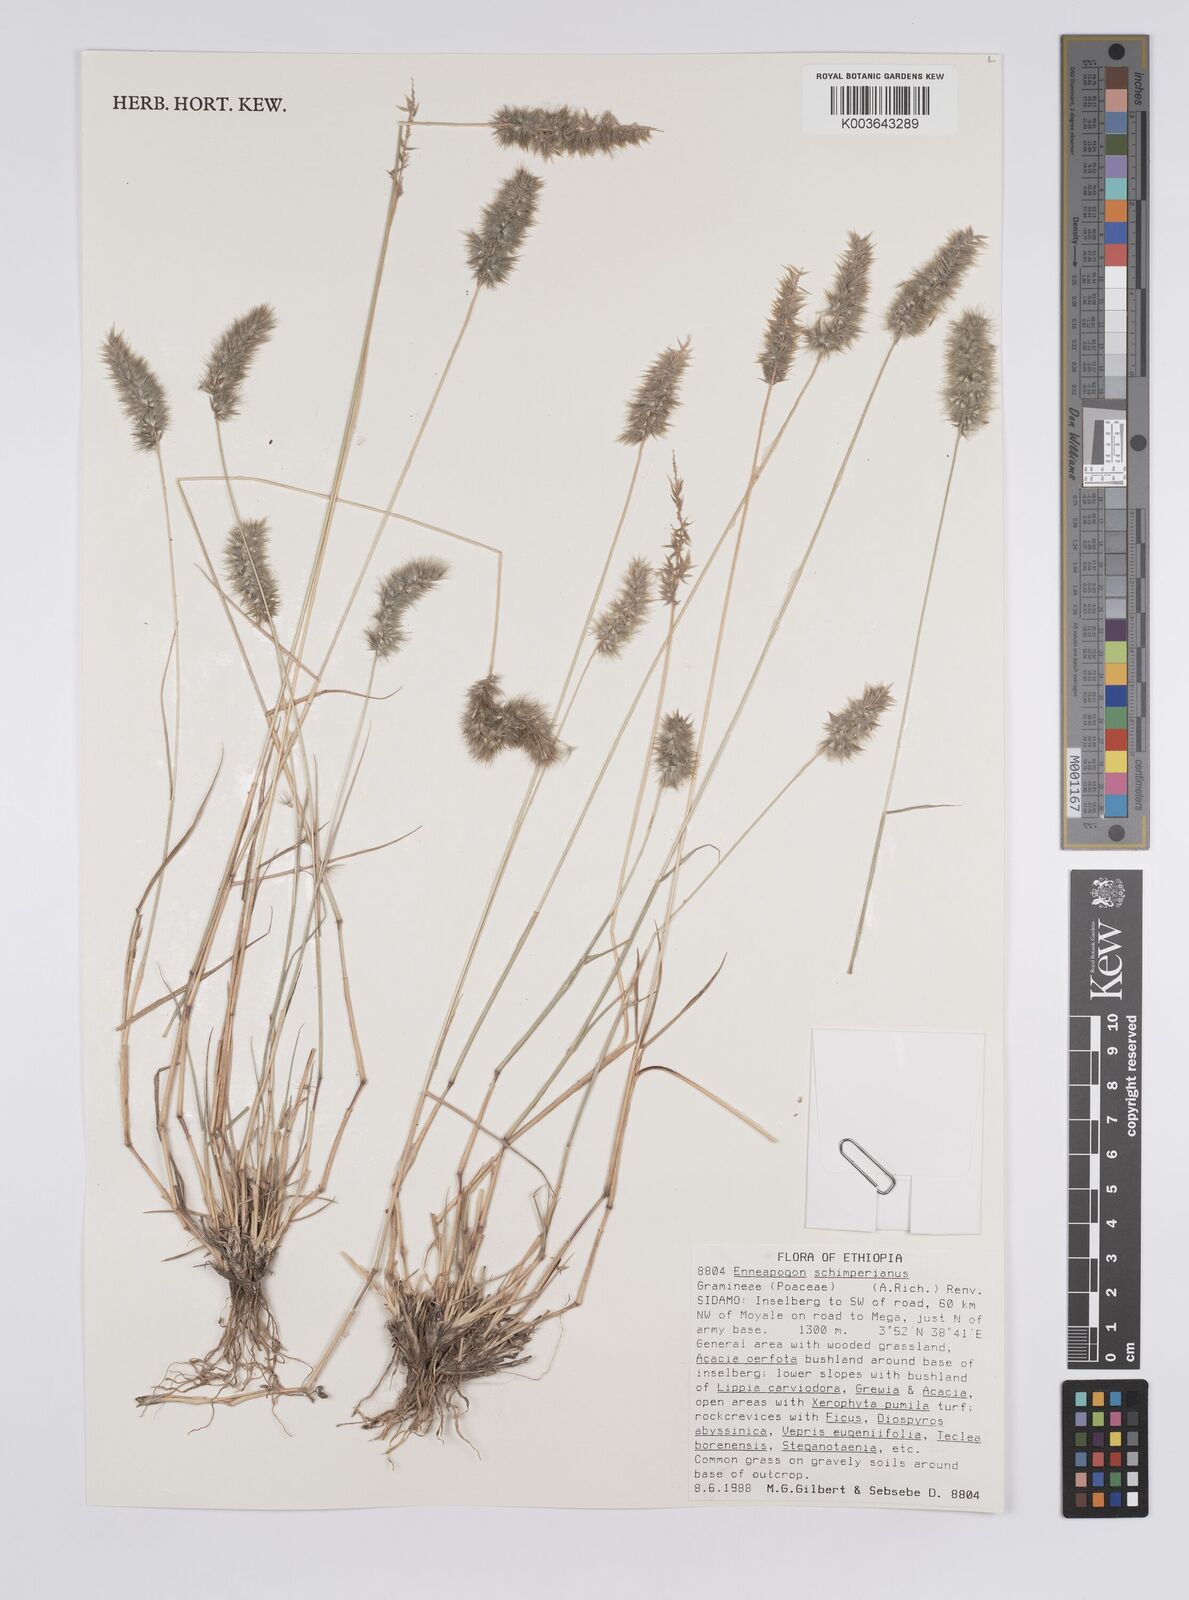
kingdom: Plantae
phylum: Tracheophyta
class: Liliopsida
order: Poales
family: Poaceae
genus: Enneapogon
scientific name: Enneapogon persicus
